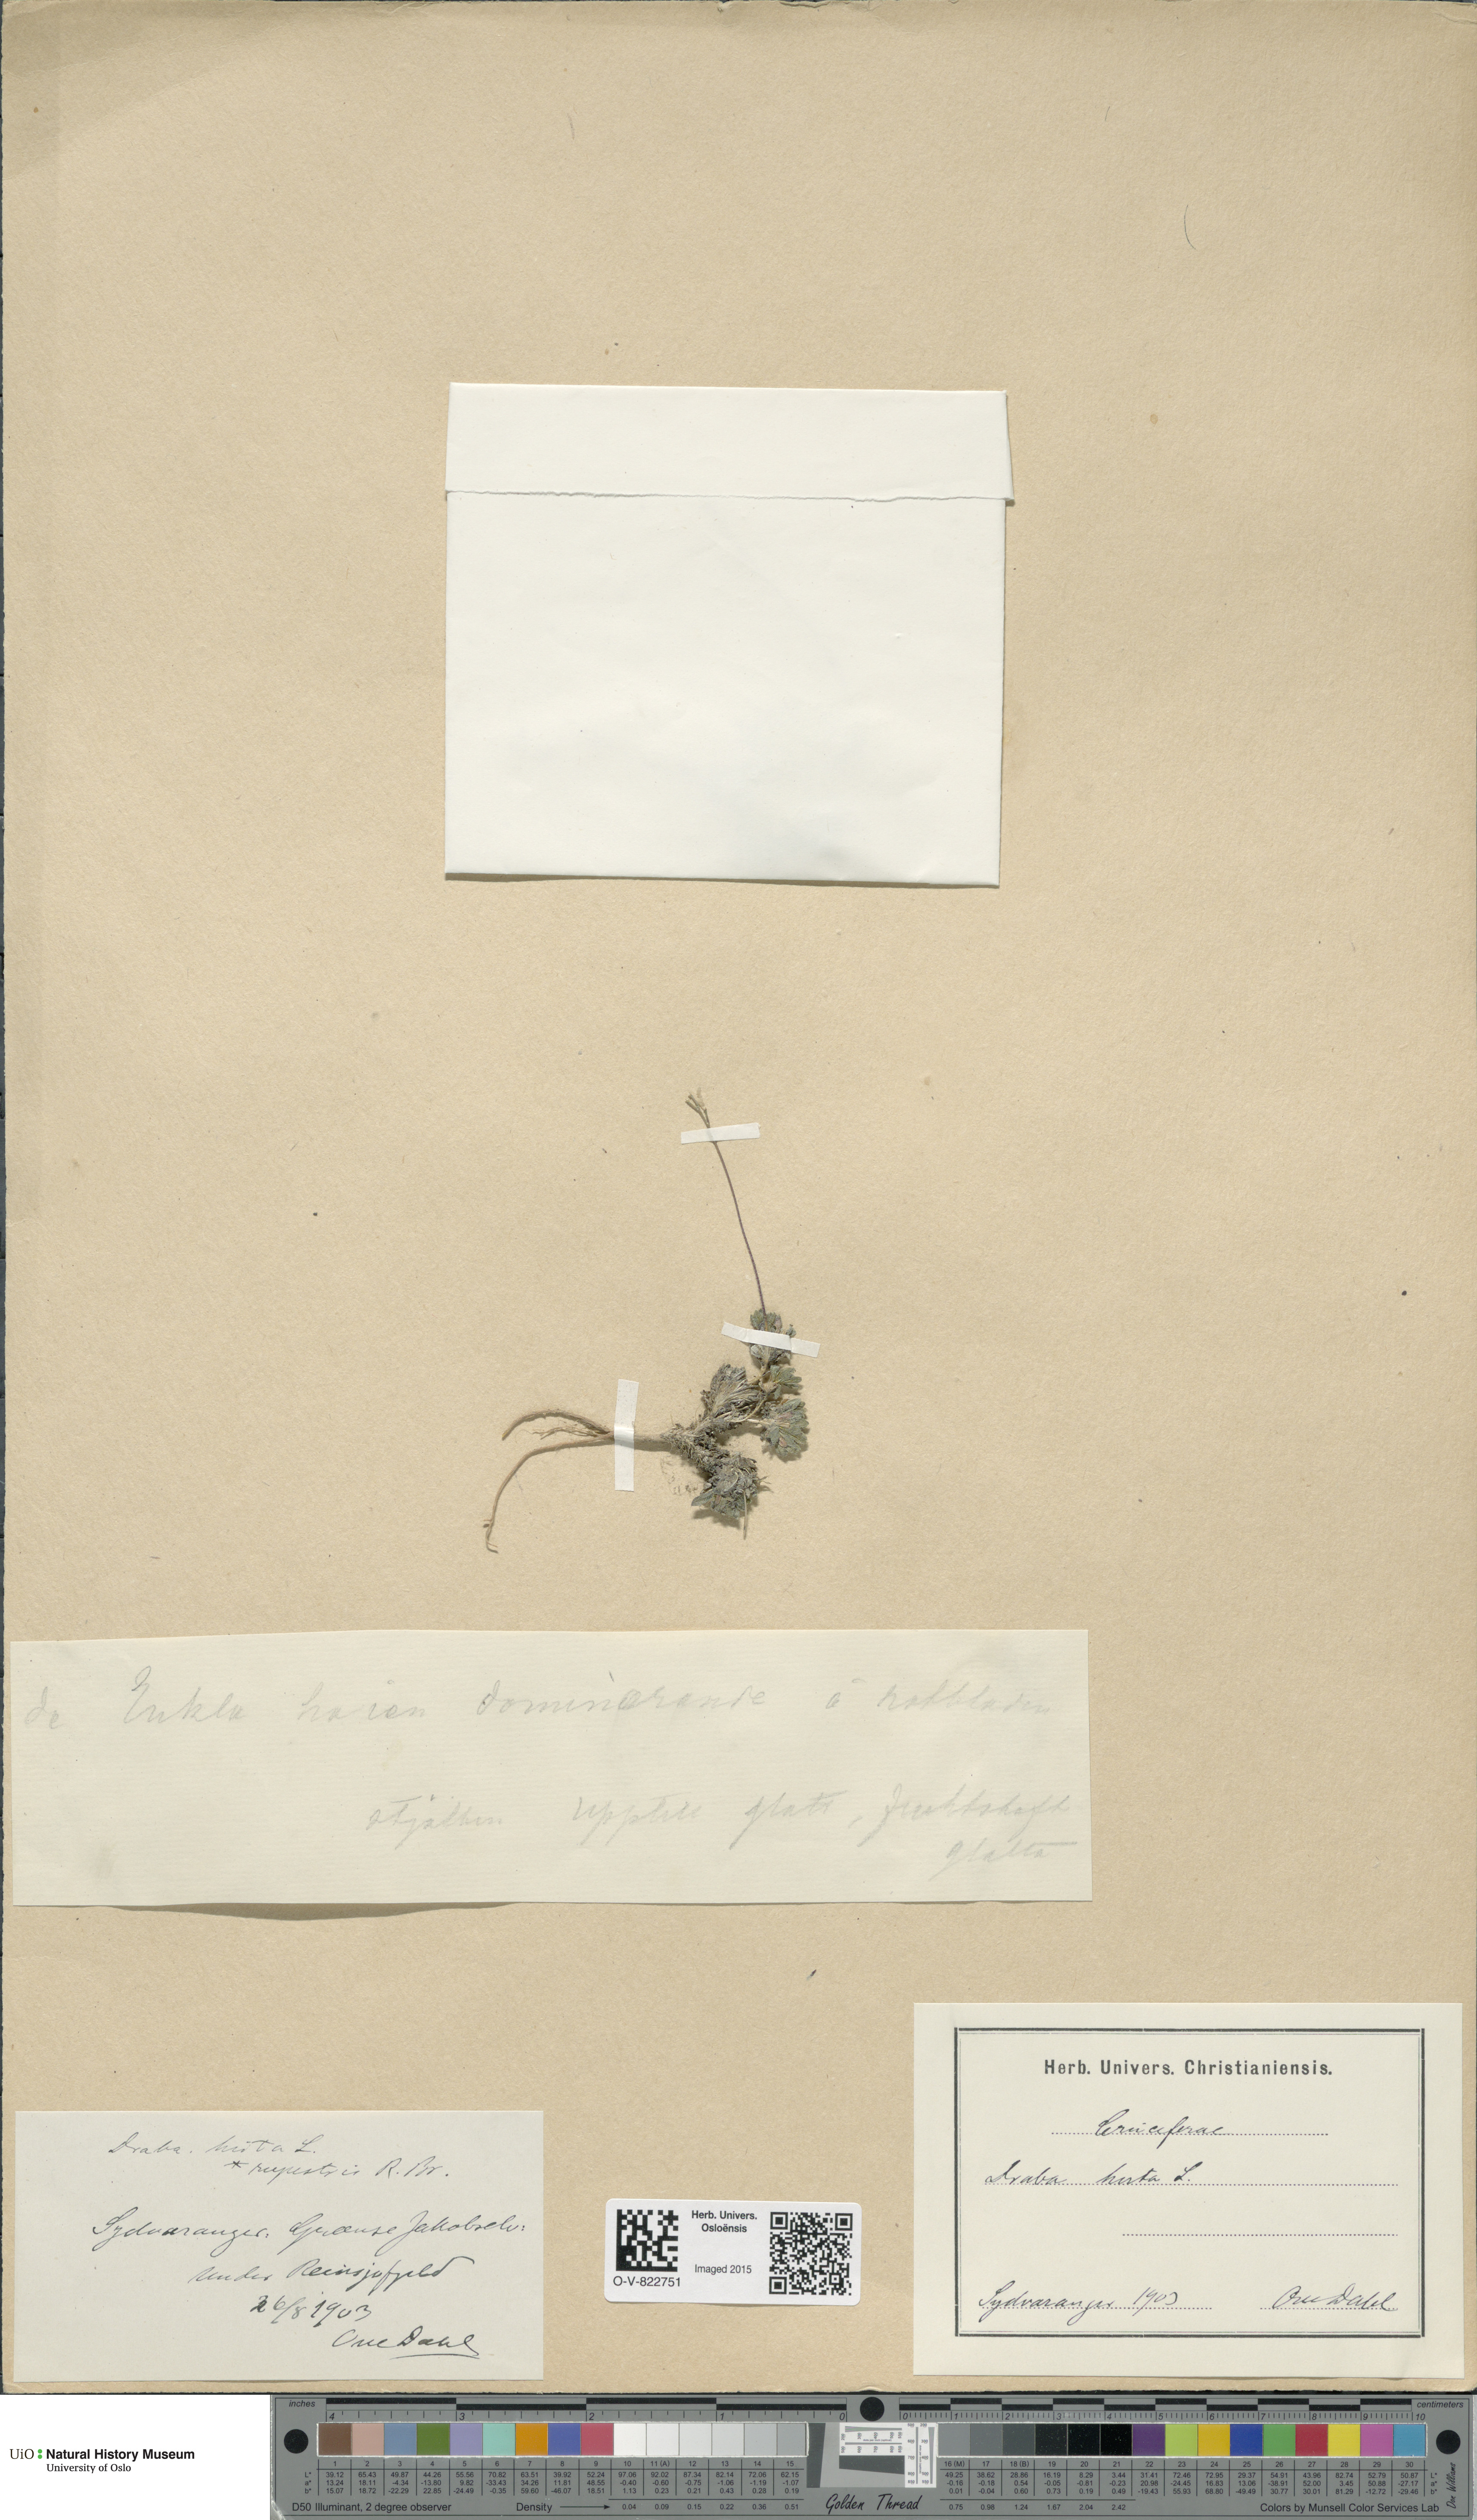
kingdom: Plantae
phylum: Tracheophyta
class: Magnoliopsida
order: Brassicales
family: Brassicaceae
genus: Draba
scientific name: Draba norvegica
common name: Rock whitlowgrass
